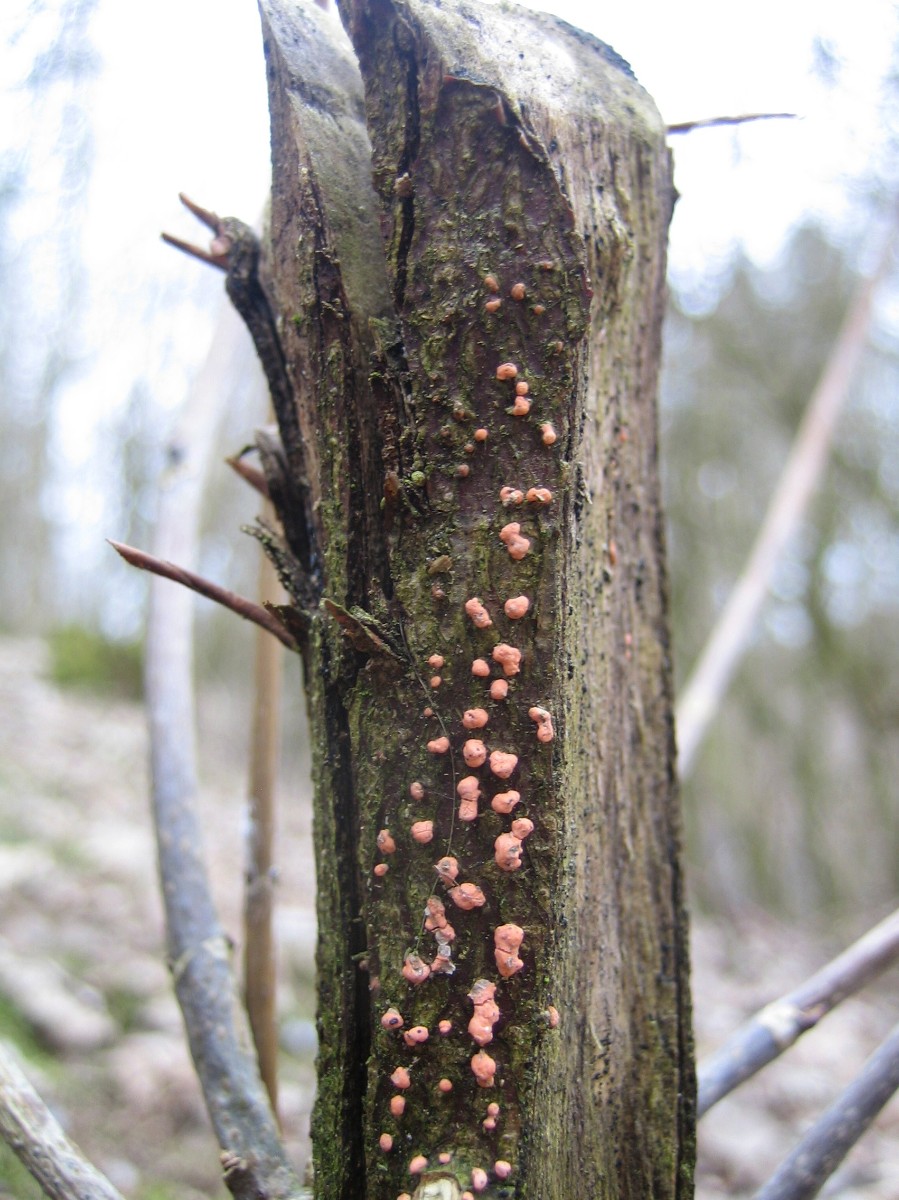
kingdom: Fungi
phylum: Ascomycota
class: Sordariomycetes
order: Hypocreales
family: Nectriaceae
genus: Nectria
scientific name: Nectria cinnabarina
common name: almindelig cinnobersvamp
